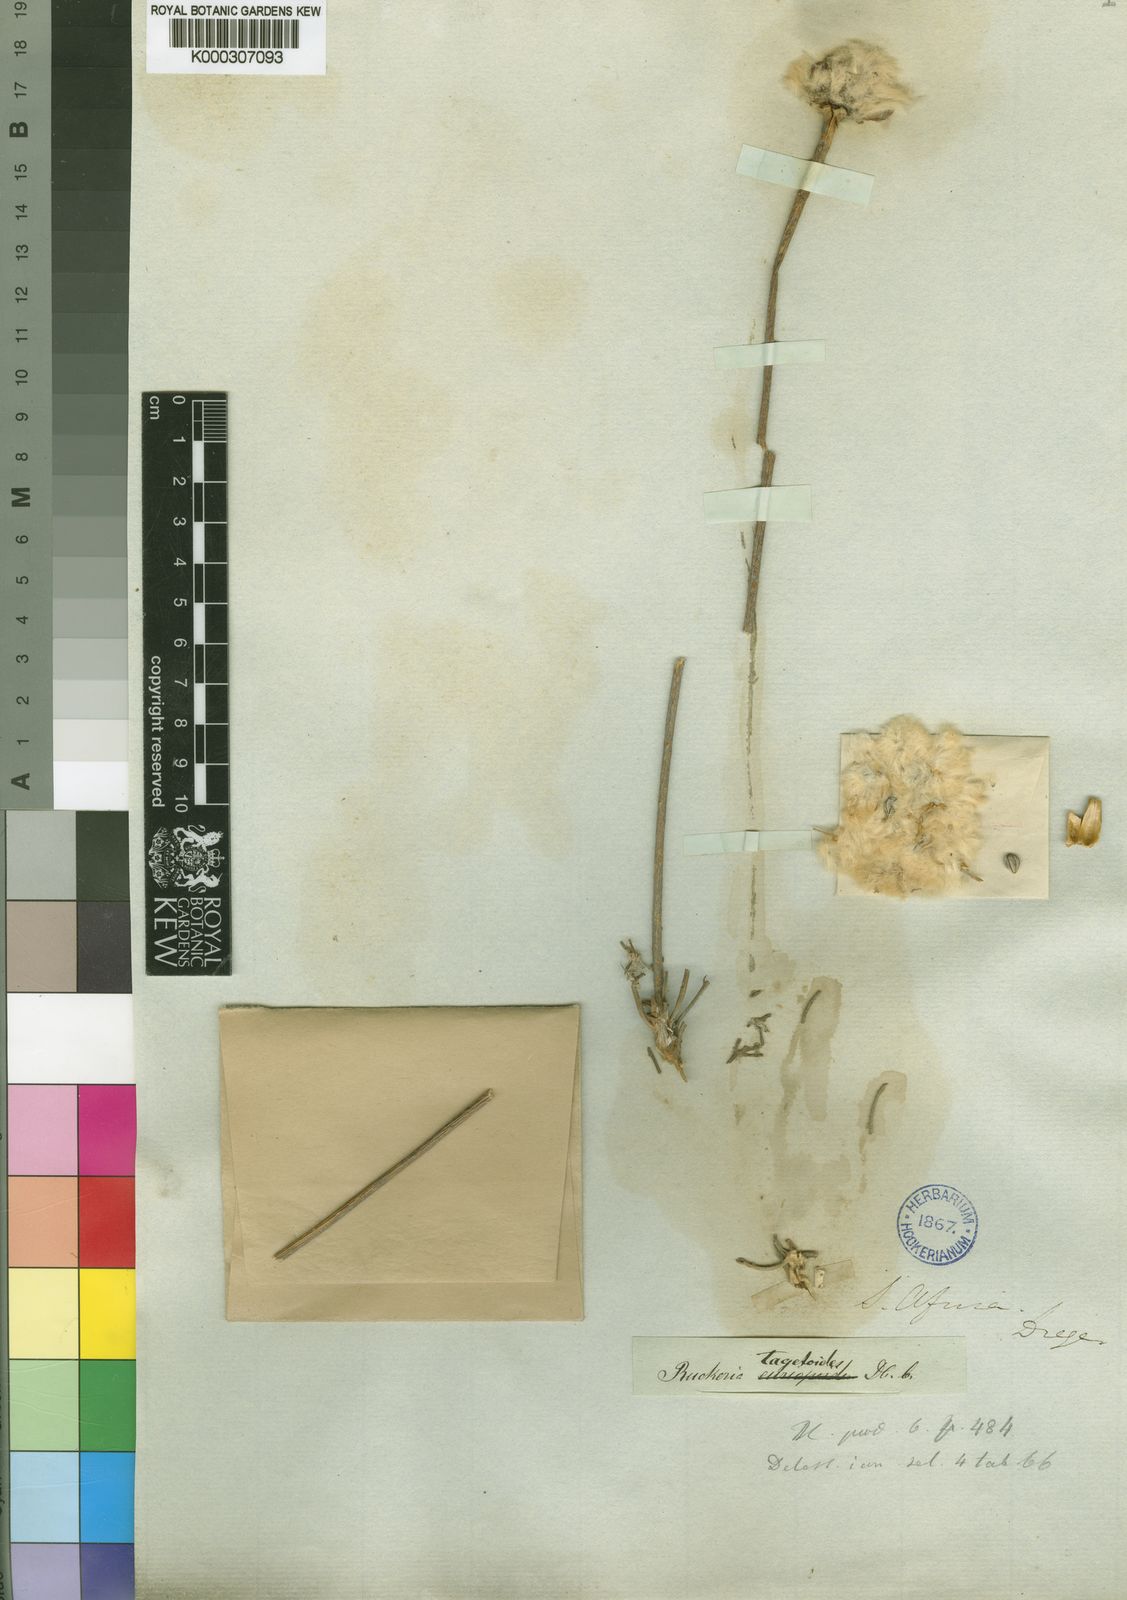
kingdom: Plantae
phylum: Tracheophyta
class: Magnoliopsida
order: Asterales
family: Asteraceae
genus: Euryops
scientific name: Euryops tagetoides
